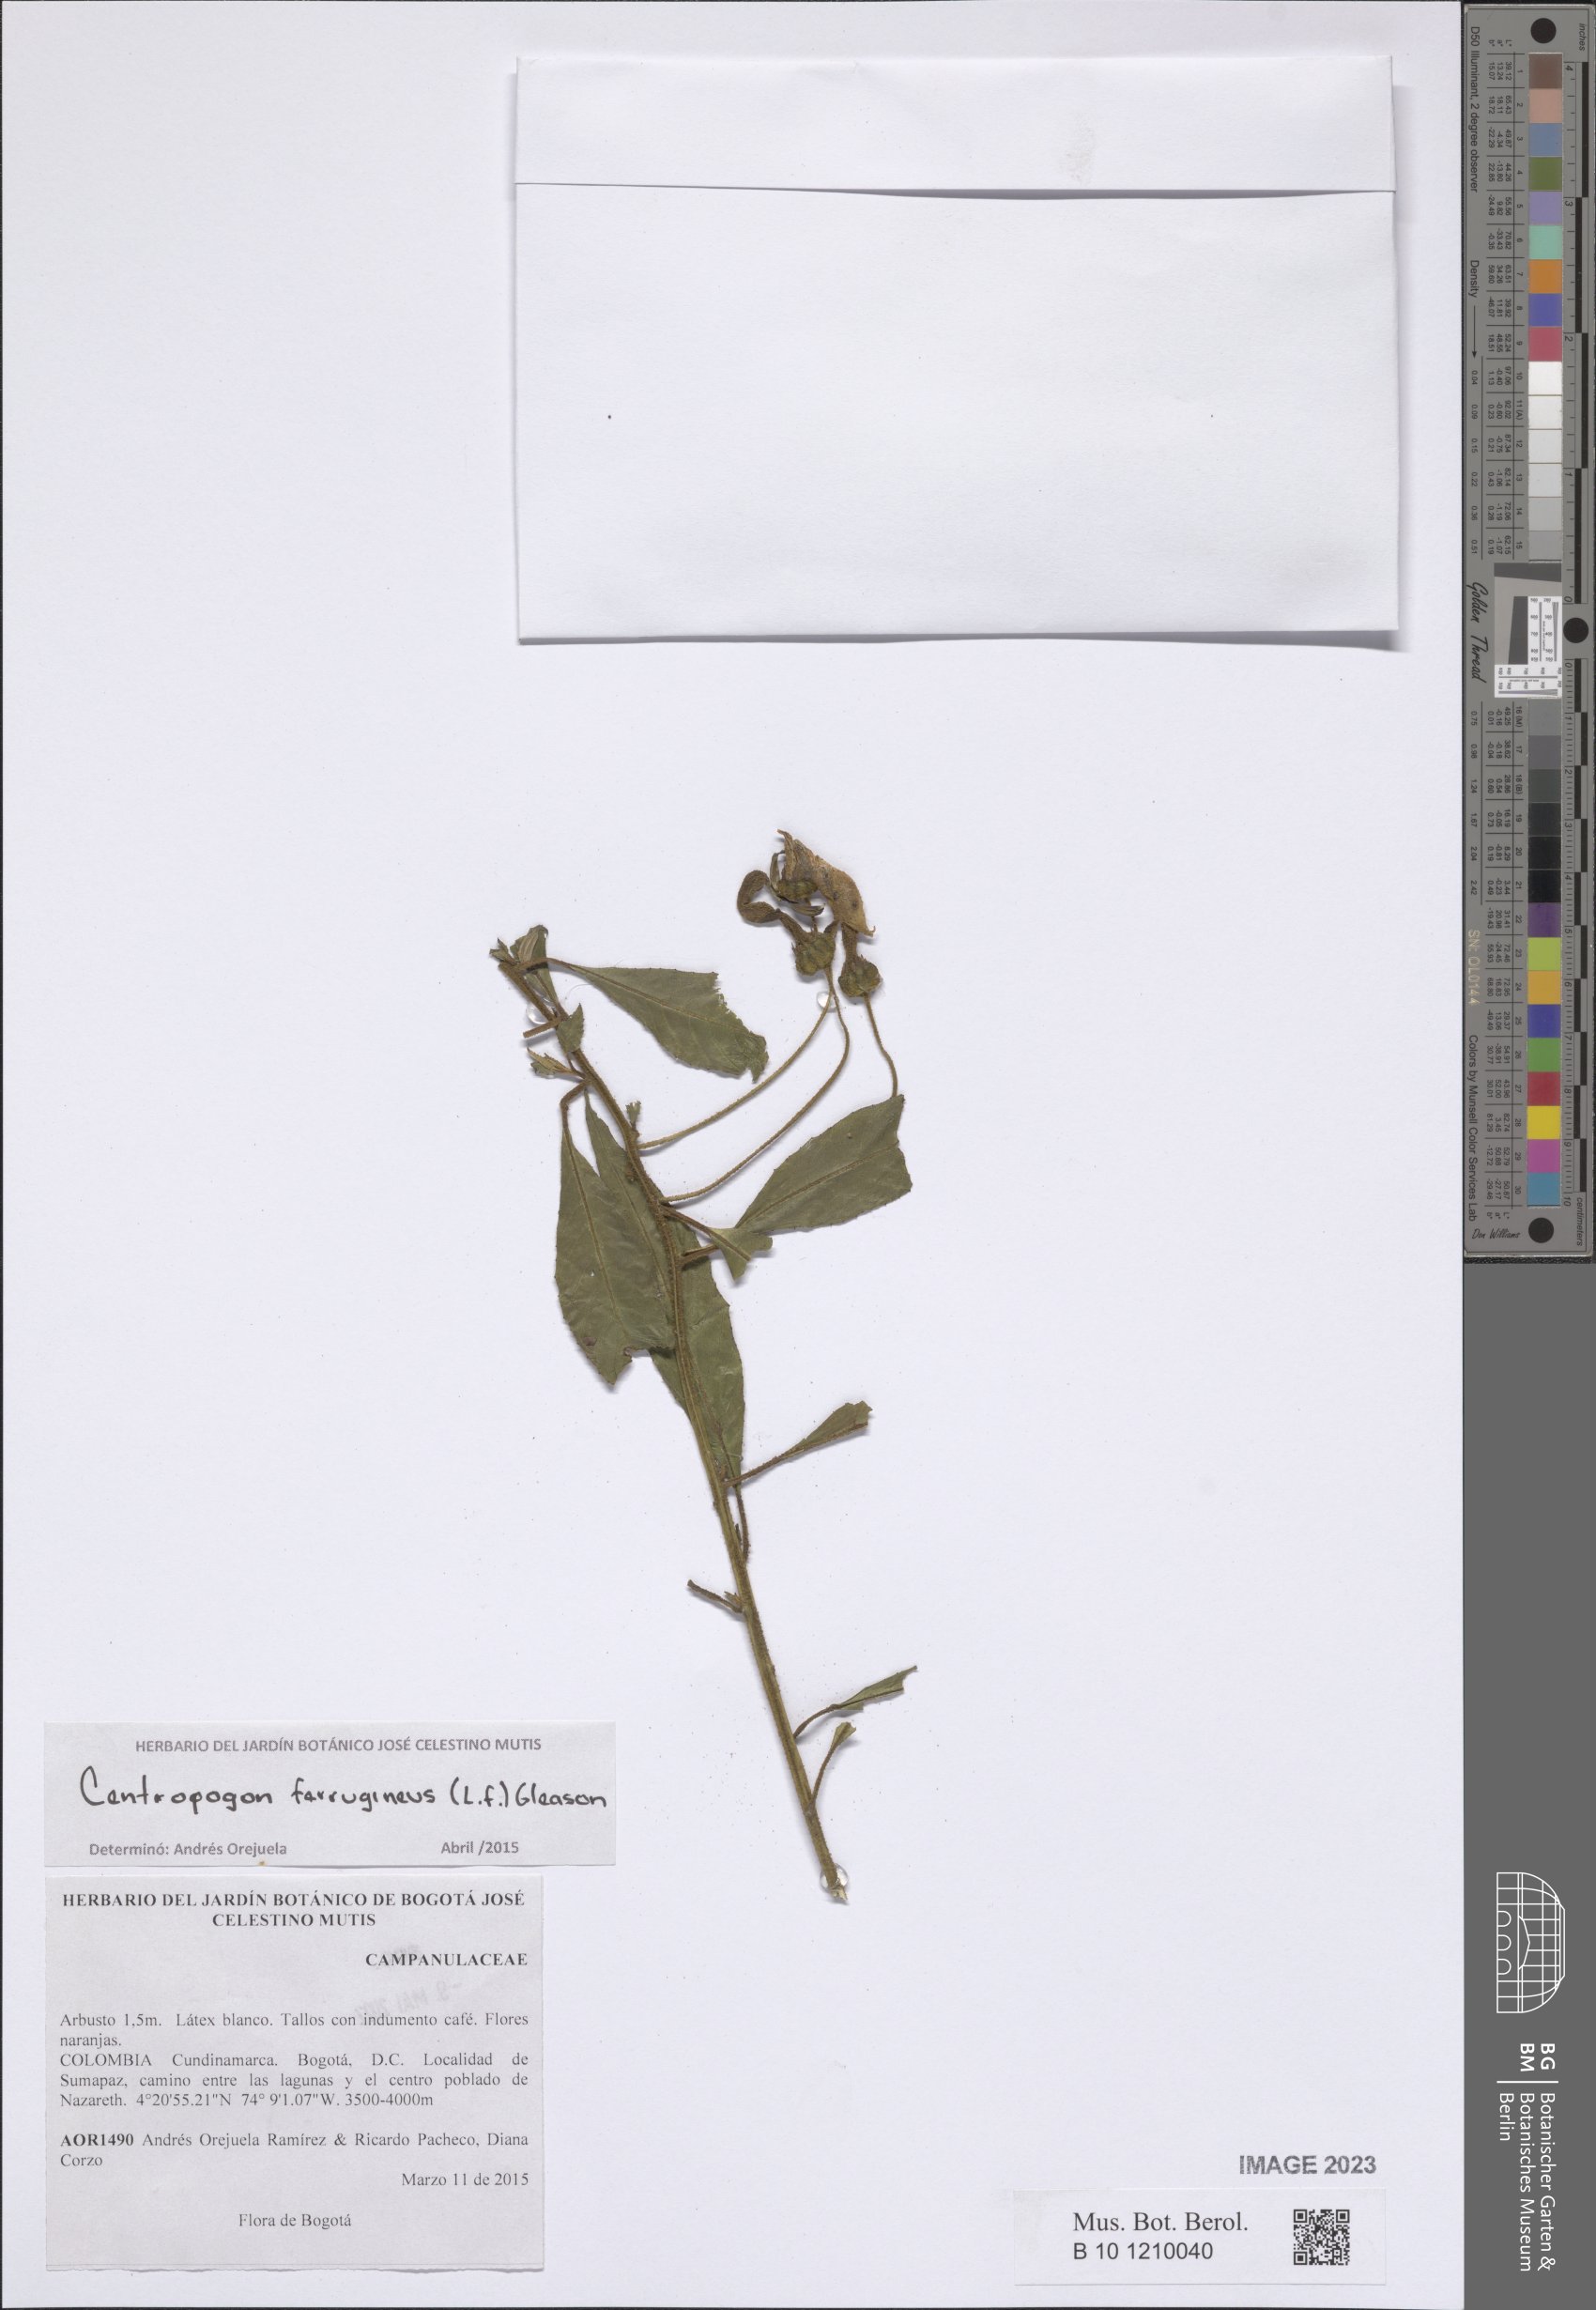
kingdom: Plantae
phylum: Tracheophyta
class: Magnoliopsida
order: Asterales
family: Campanulaceae
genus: Centropogon
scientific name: Centropogon ferrugineus
